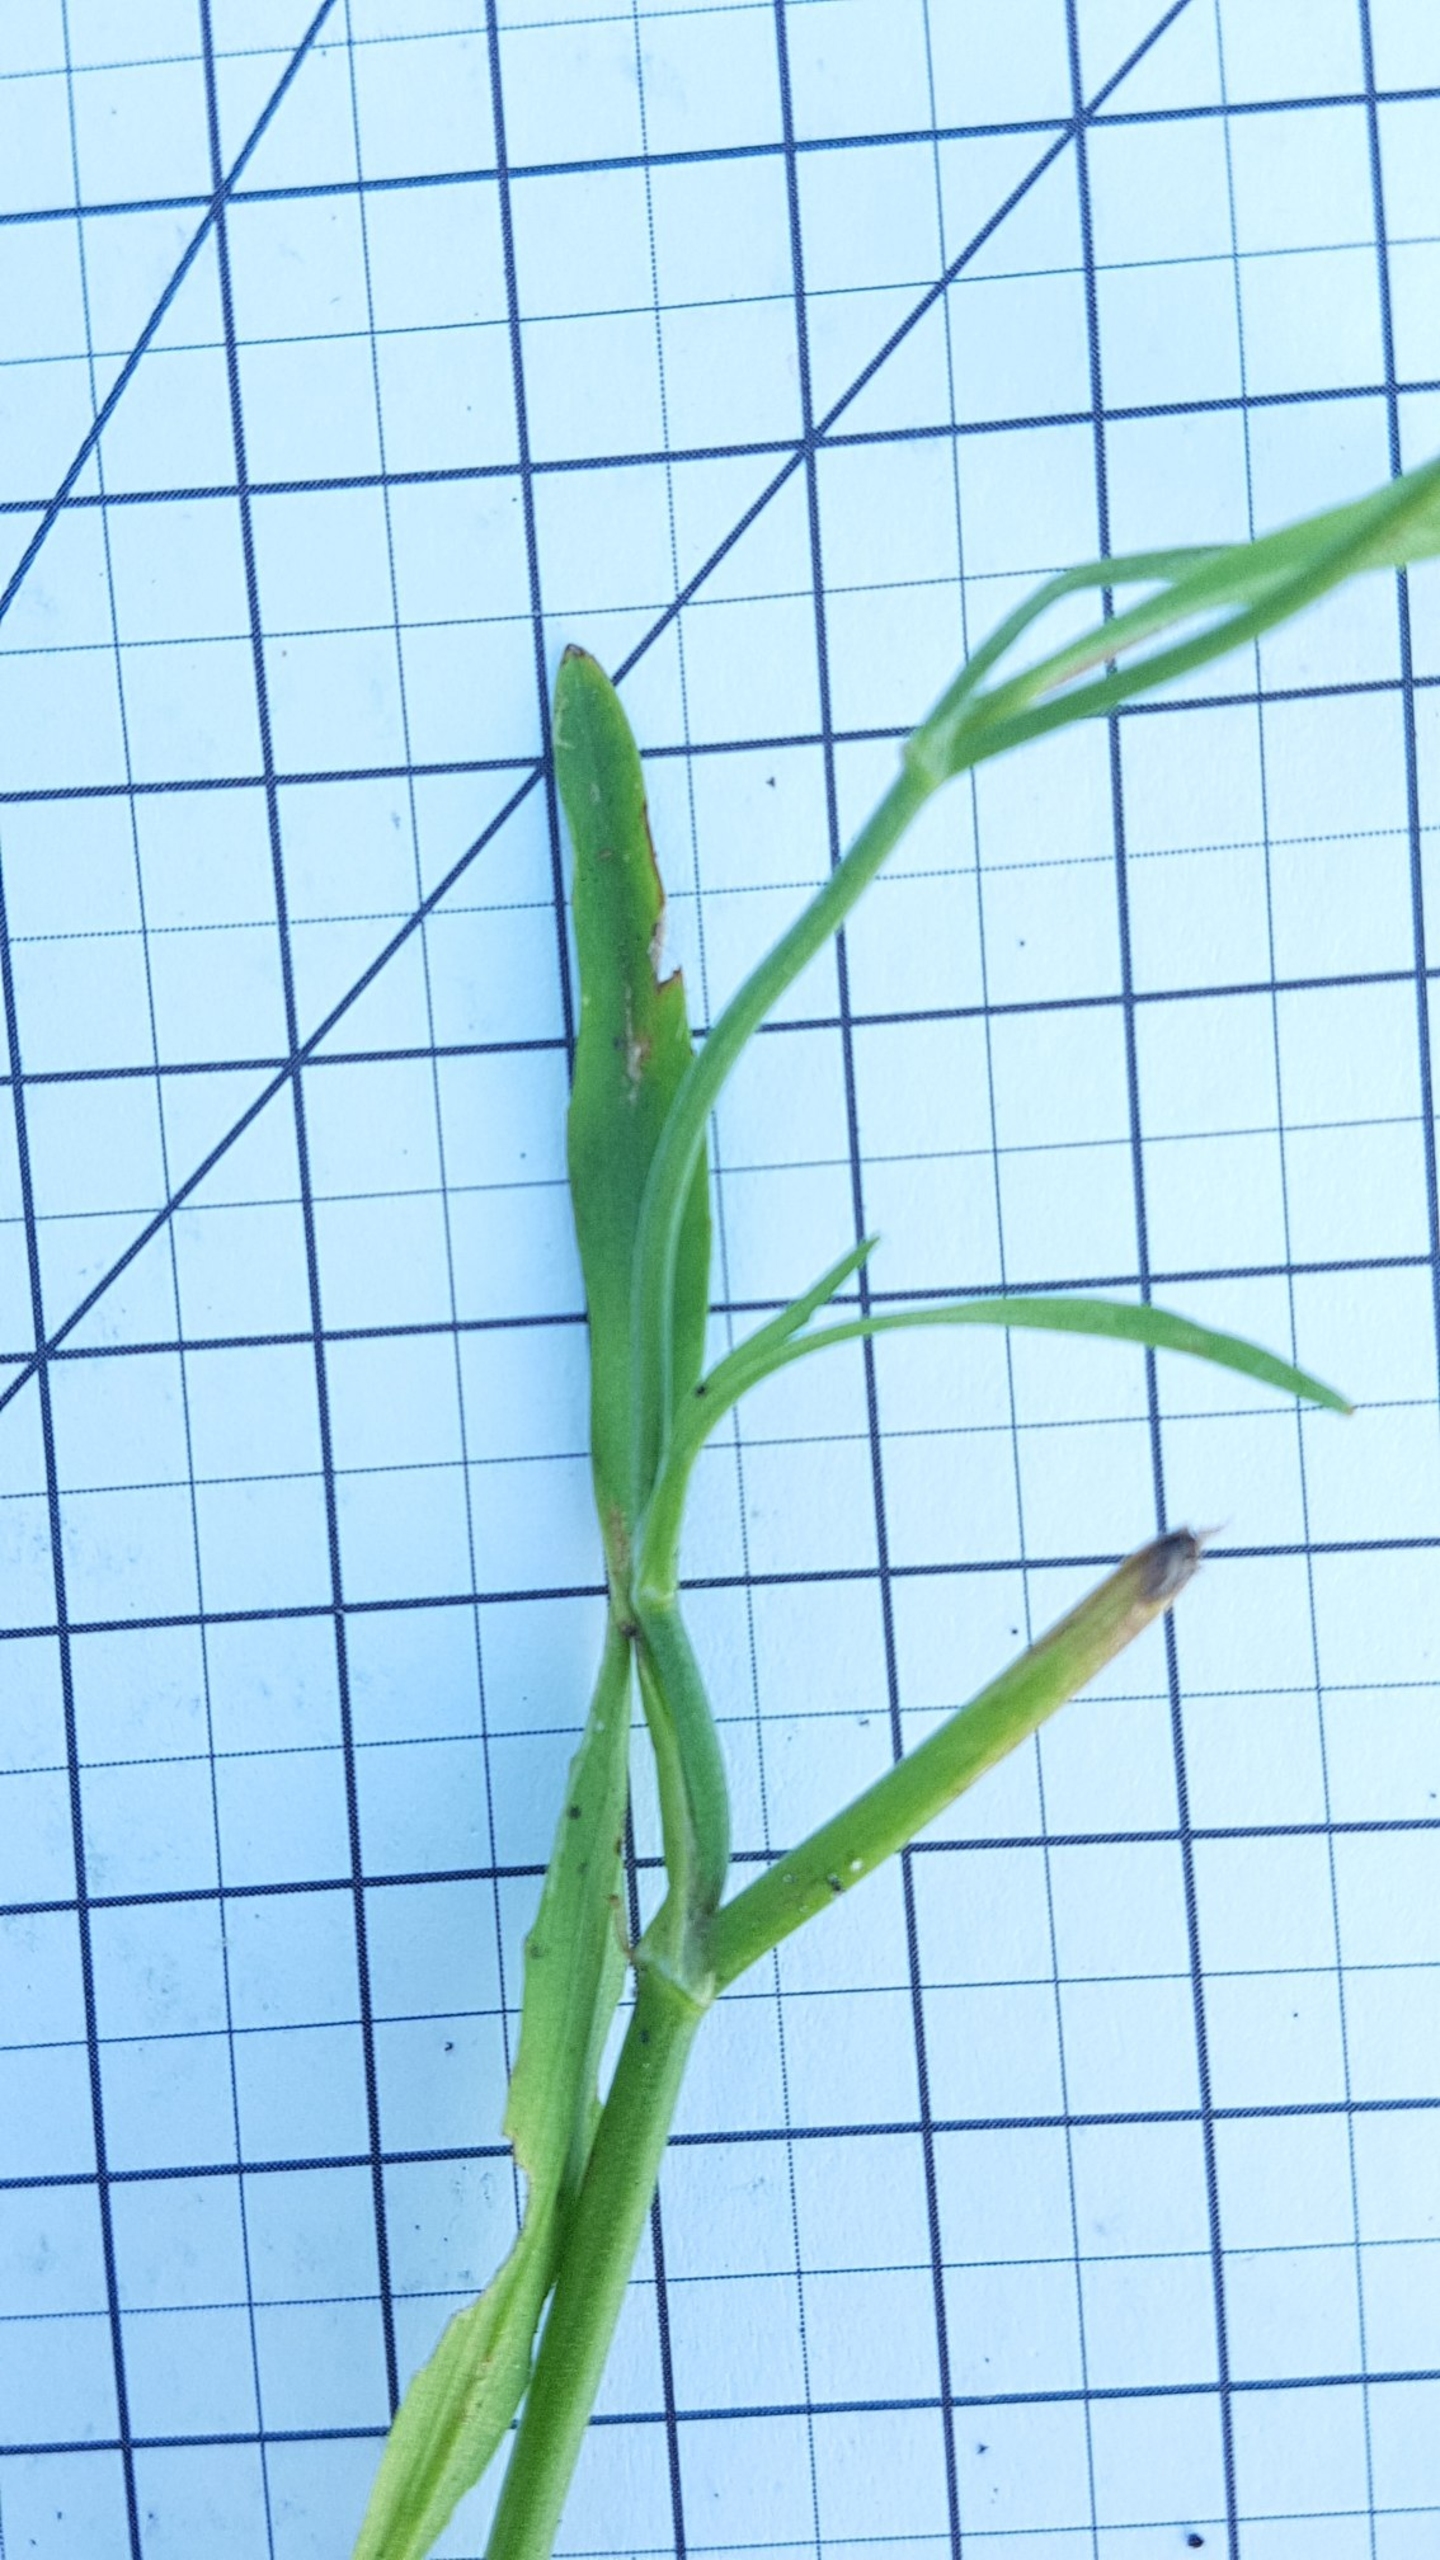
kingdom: Plantae
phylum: Tracheophyta
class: Magnoliopsida
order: Ranunculales
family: Ranunculaceae
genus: Ranunculus
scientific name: Ranunculus flammula
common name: Kær-ranunkel
